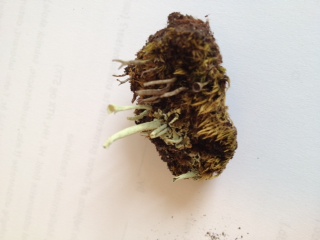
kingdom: Fungi
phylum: Ascomycota
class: Lecanoromycetes
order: Lecanorales
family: Cladoniaceae
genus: Cladonia
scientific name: Cladonia sulphurina
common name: opblæst bægerlav
